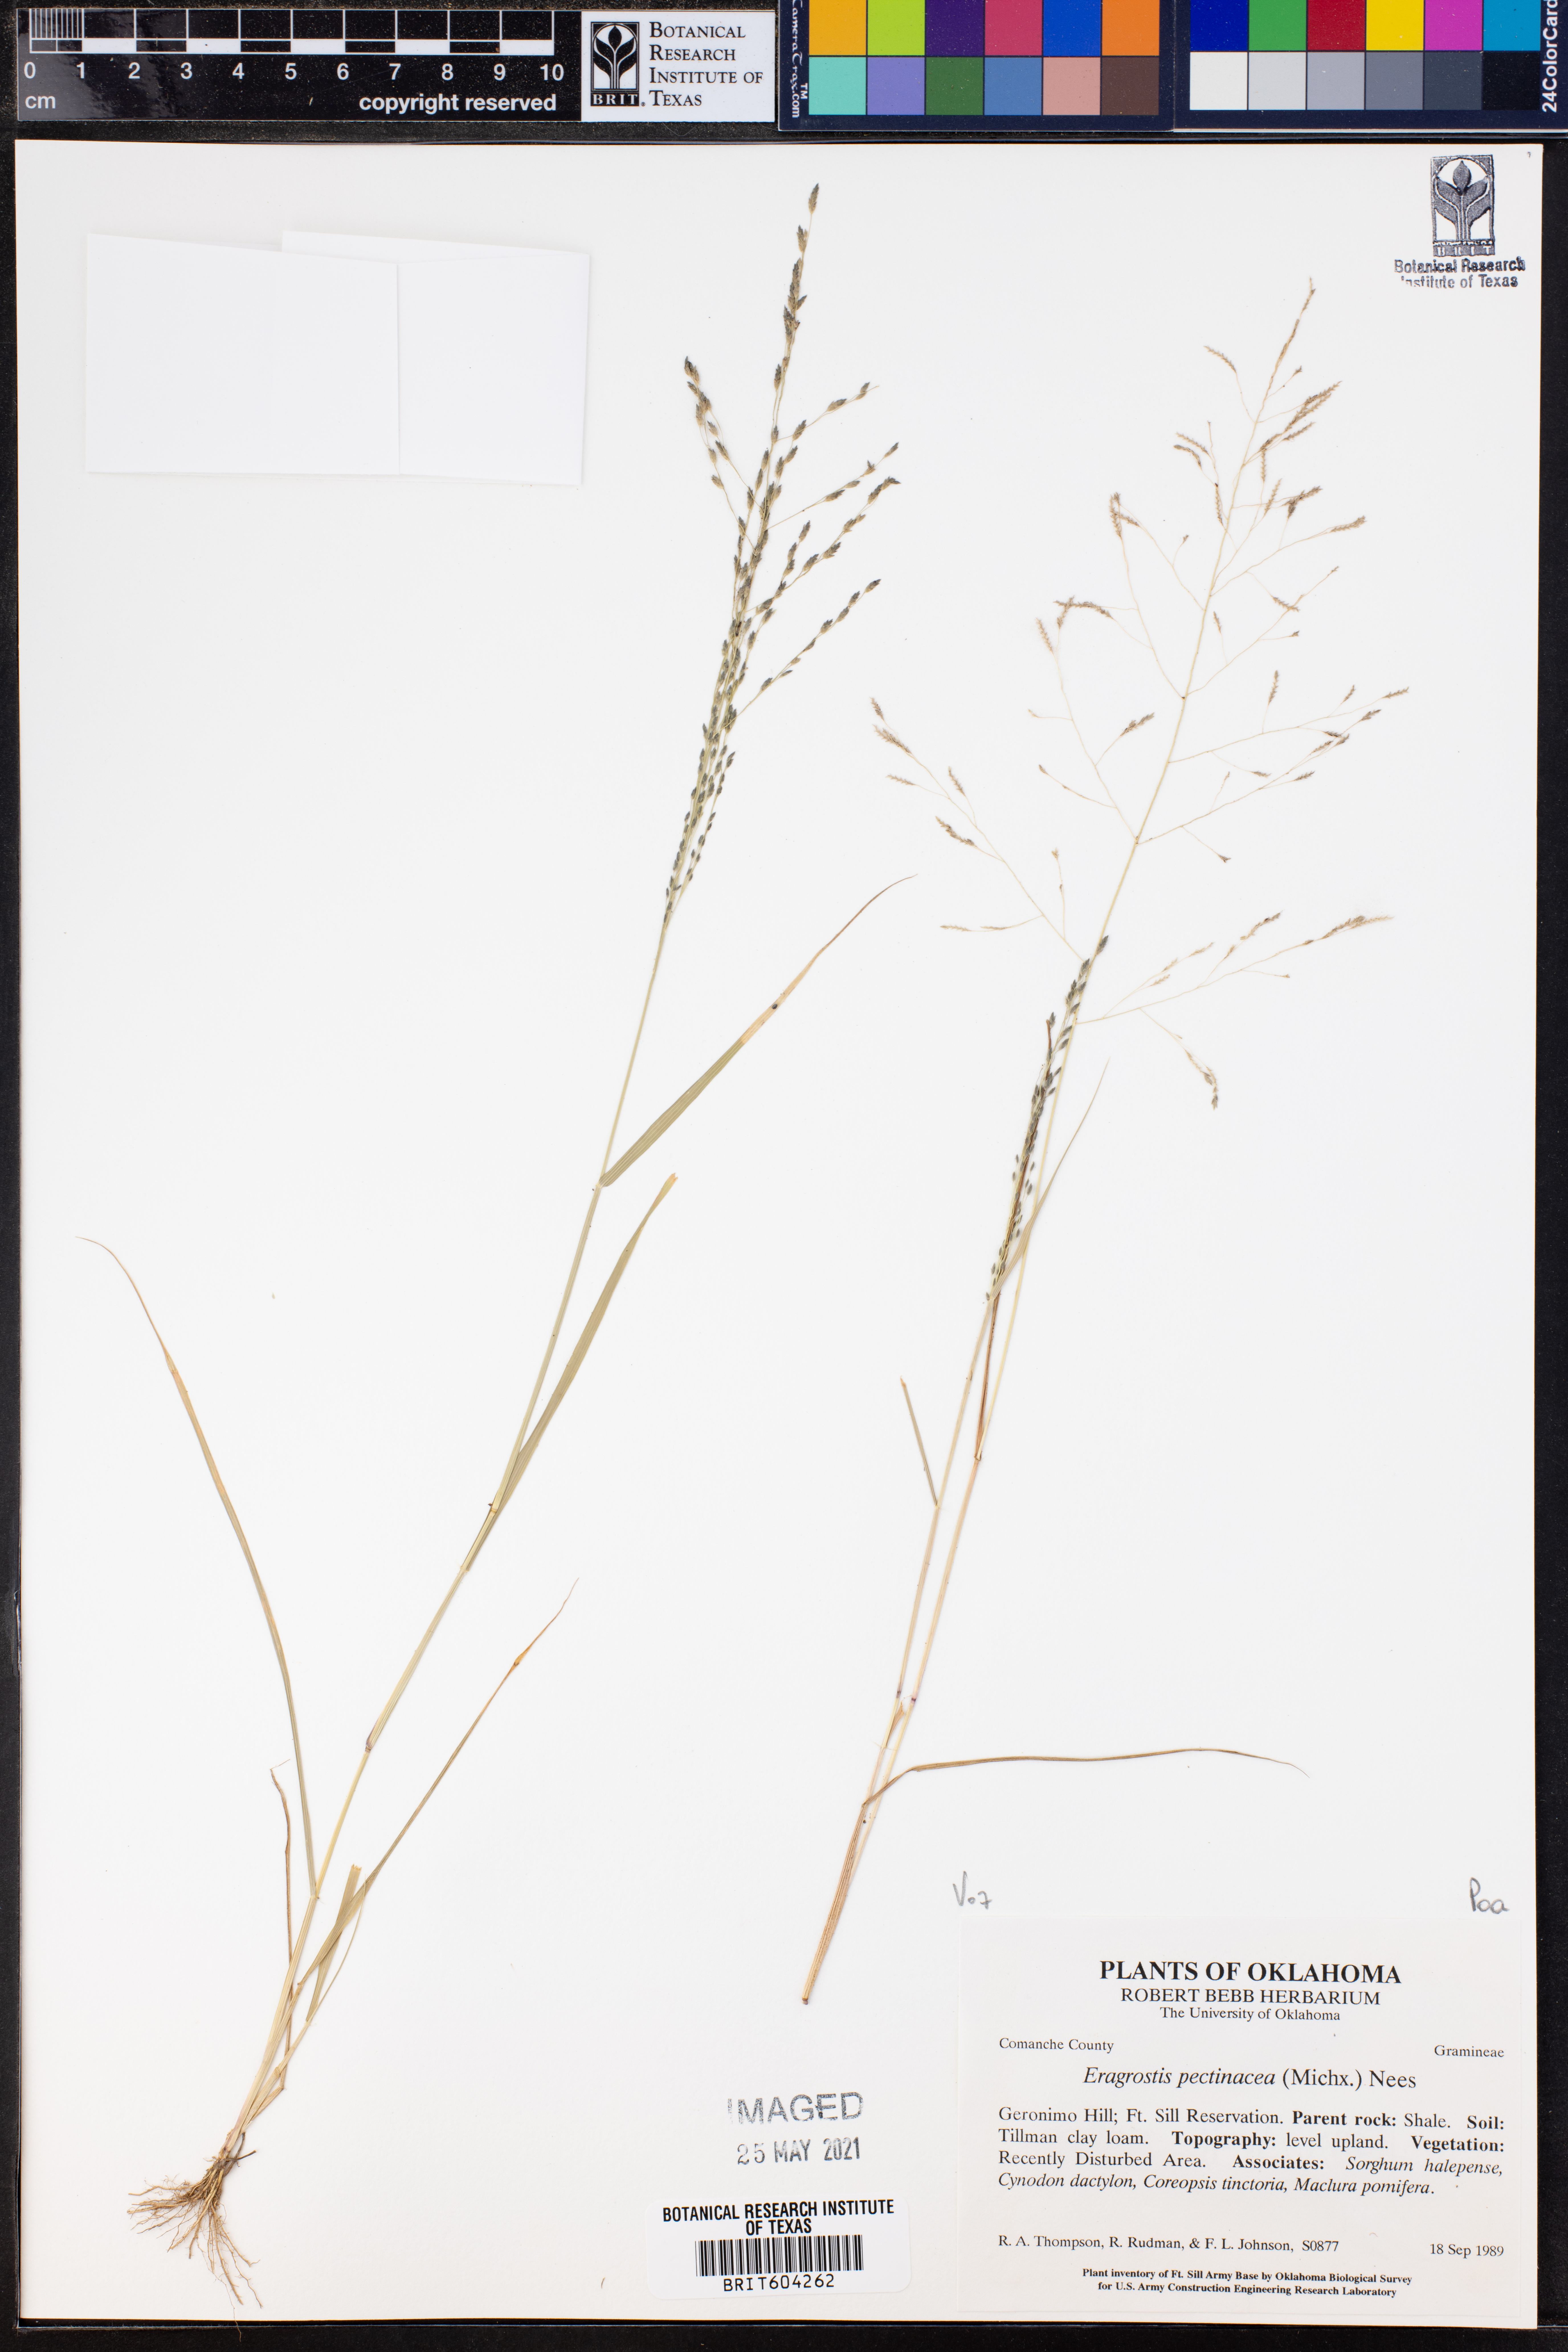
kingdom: Plantae
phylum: Tracheophyta
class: Liliopsida
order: Poales
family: Poaceae
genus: Eragrostis
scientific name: Eragrostis pectinacea
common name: Tufted lovegrass
